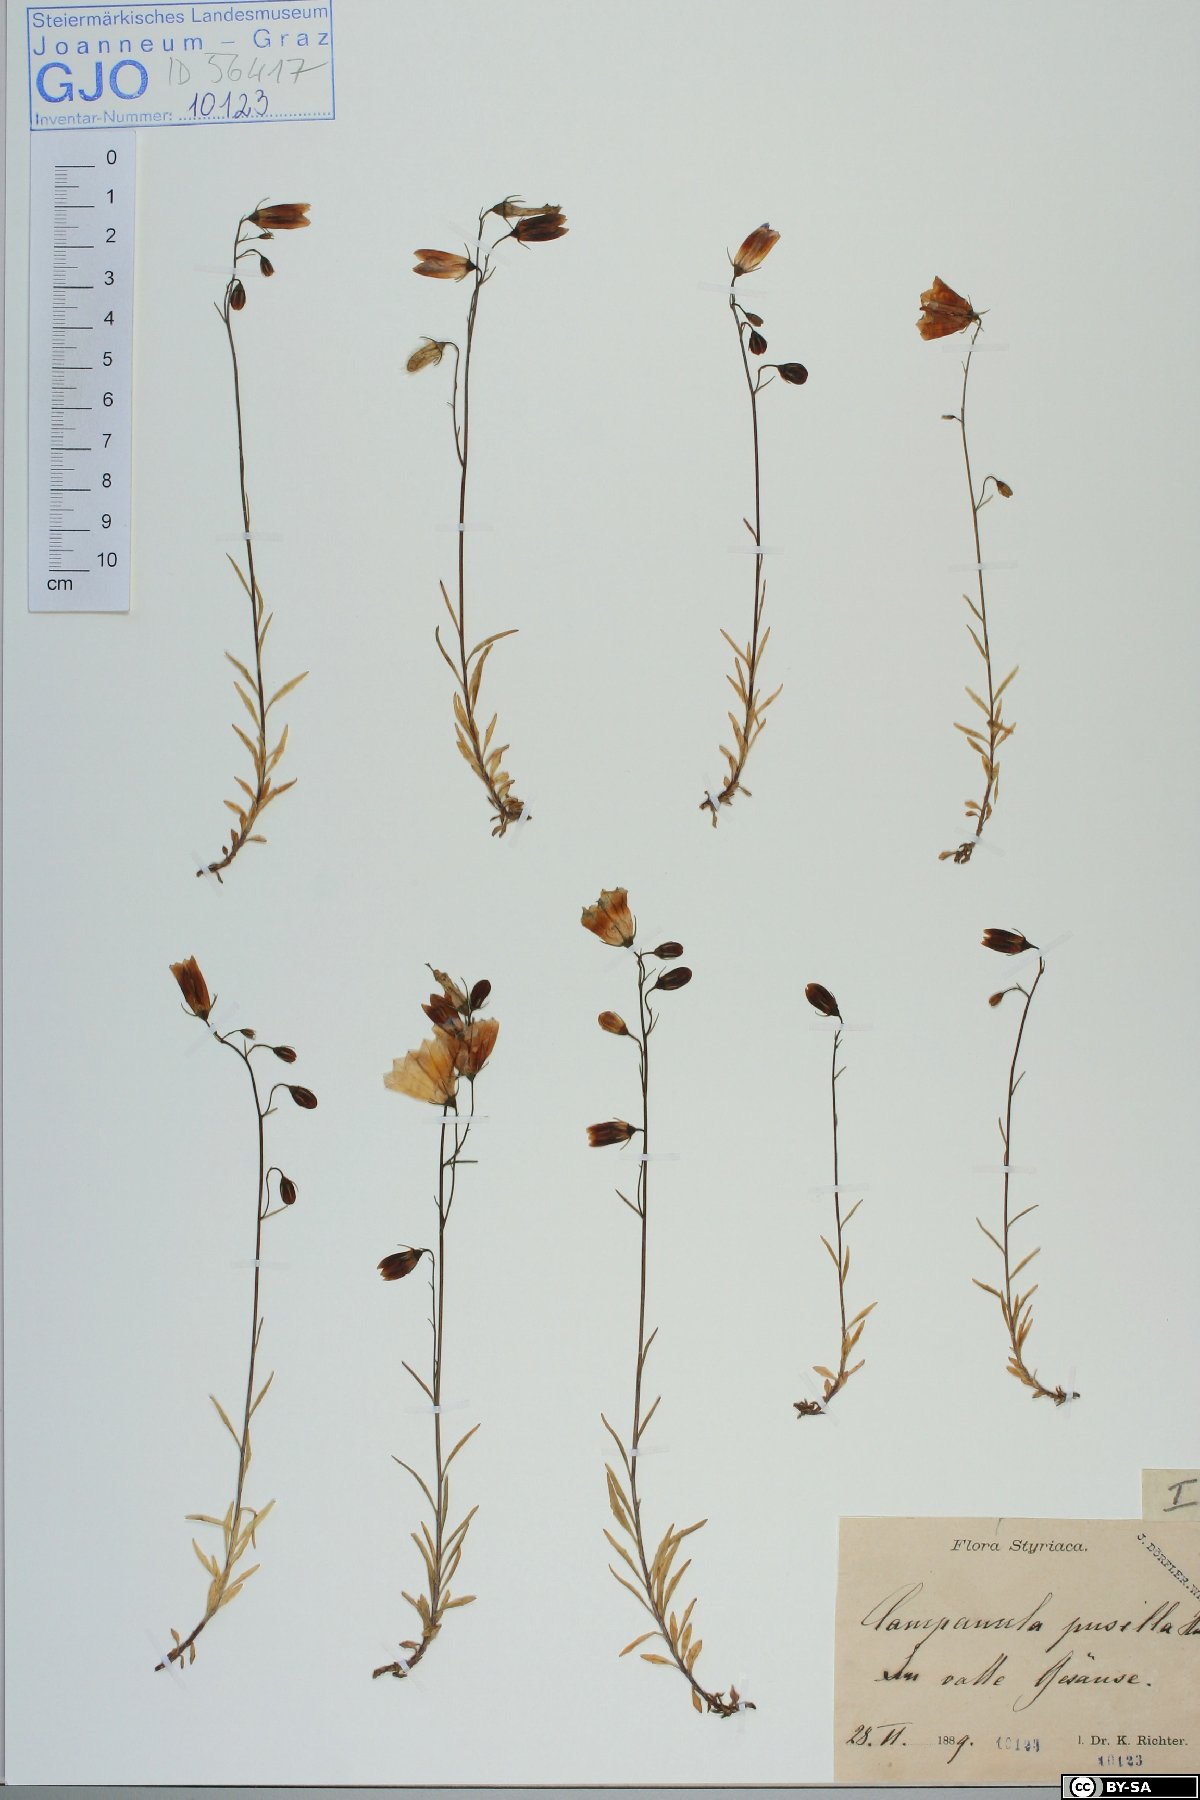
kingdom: Plantae
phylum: Tracheophyta
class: Magnoliopsida
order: Asterales
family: Campanulaceae
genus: Campanula
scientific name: Campanula cochleariifolia
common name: Fairies'-thimbles
